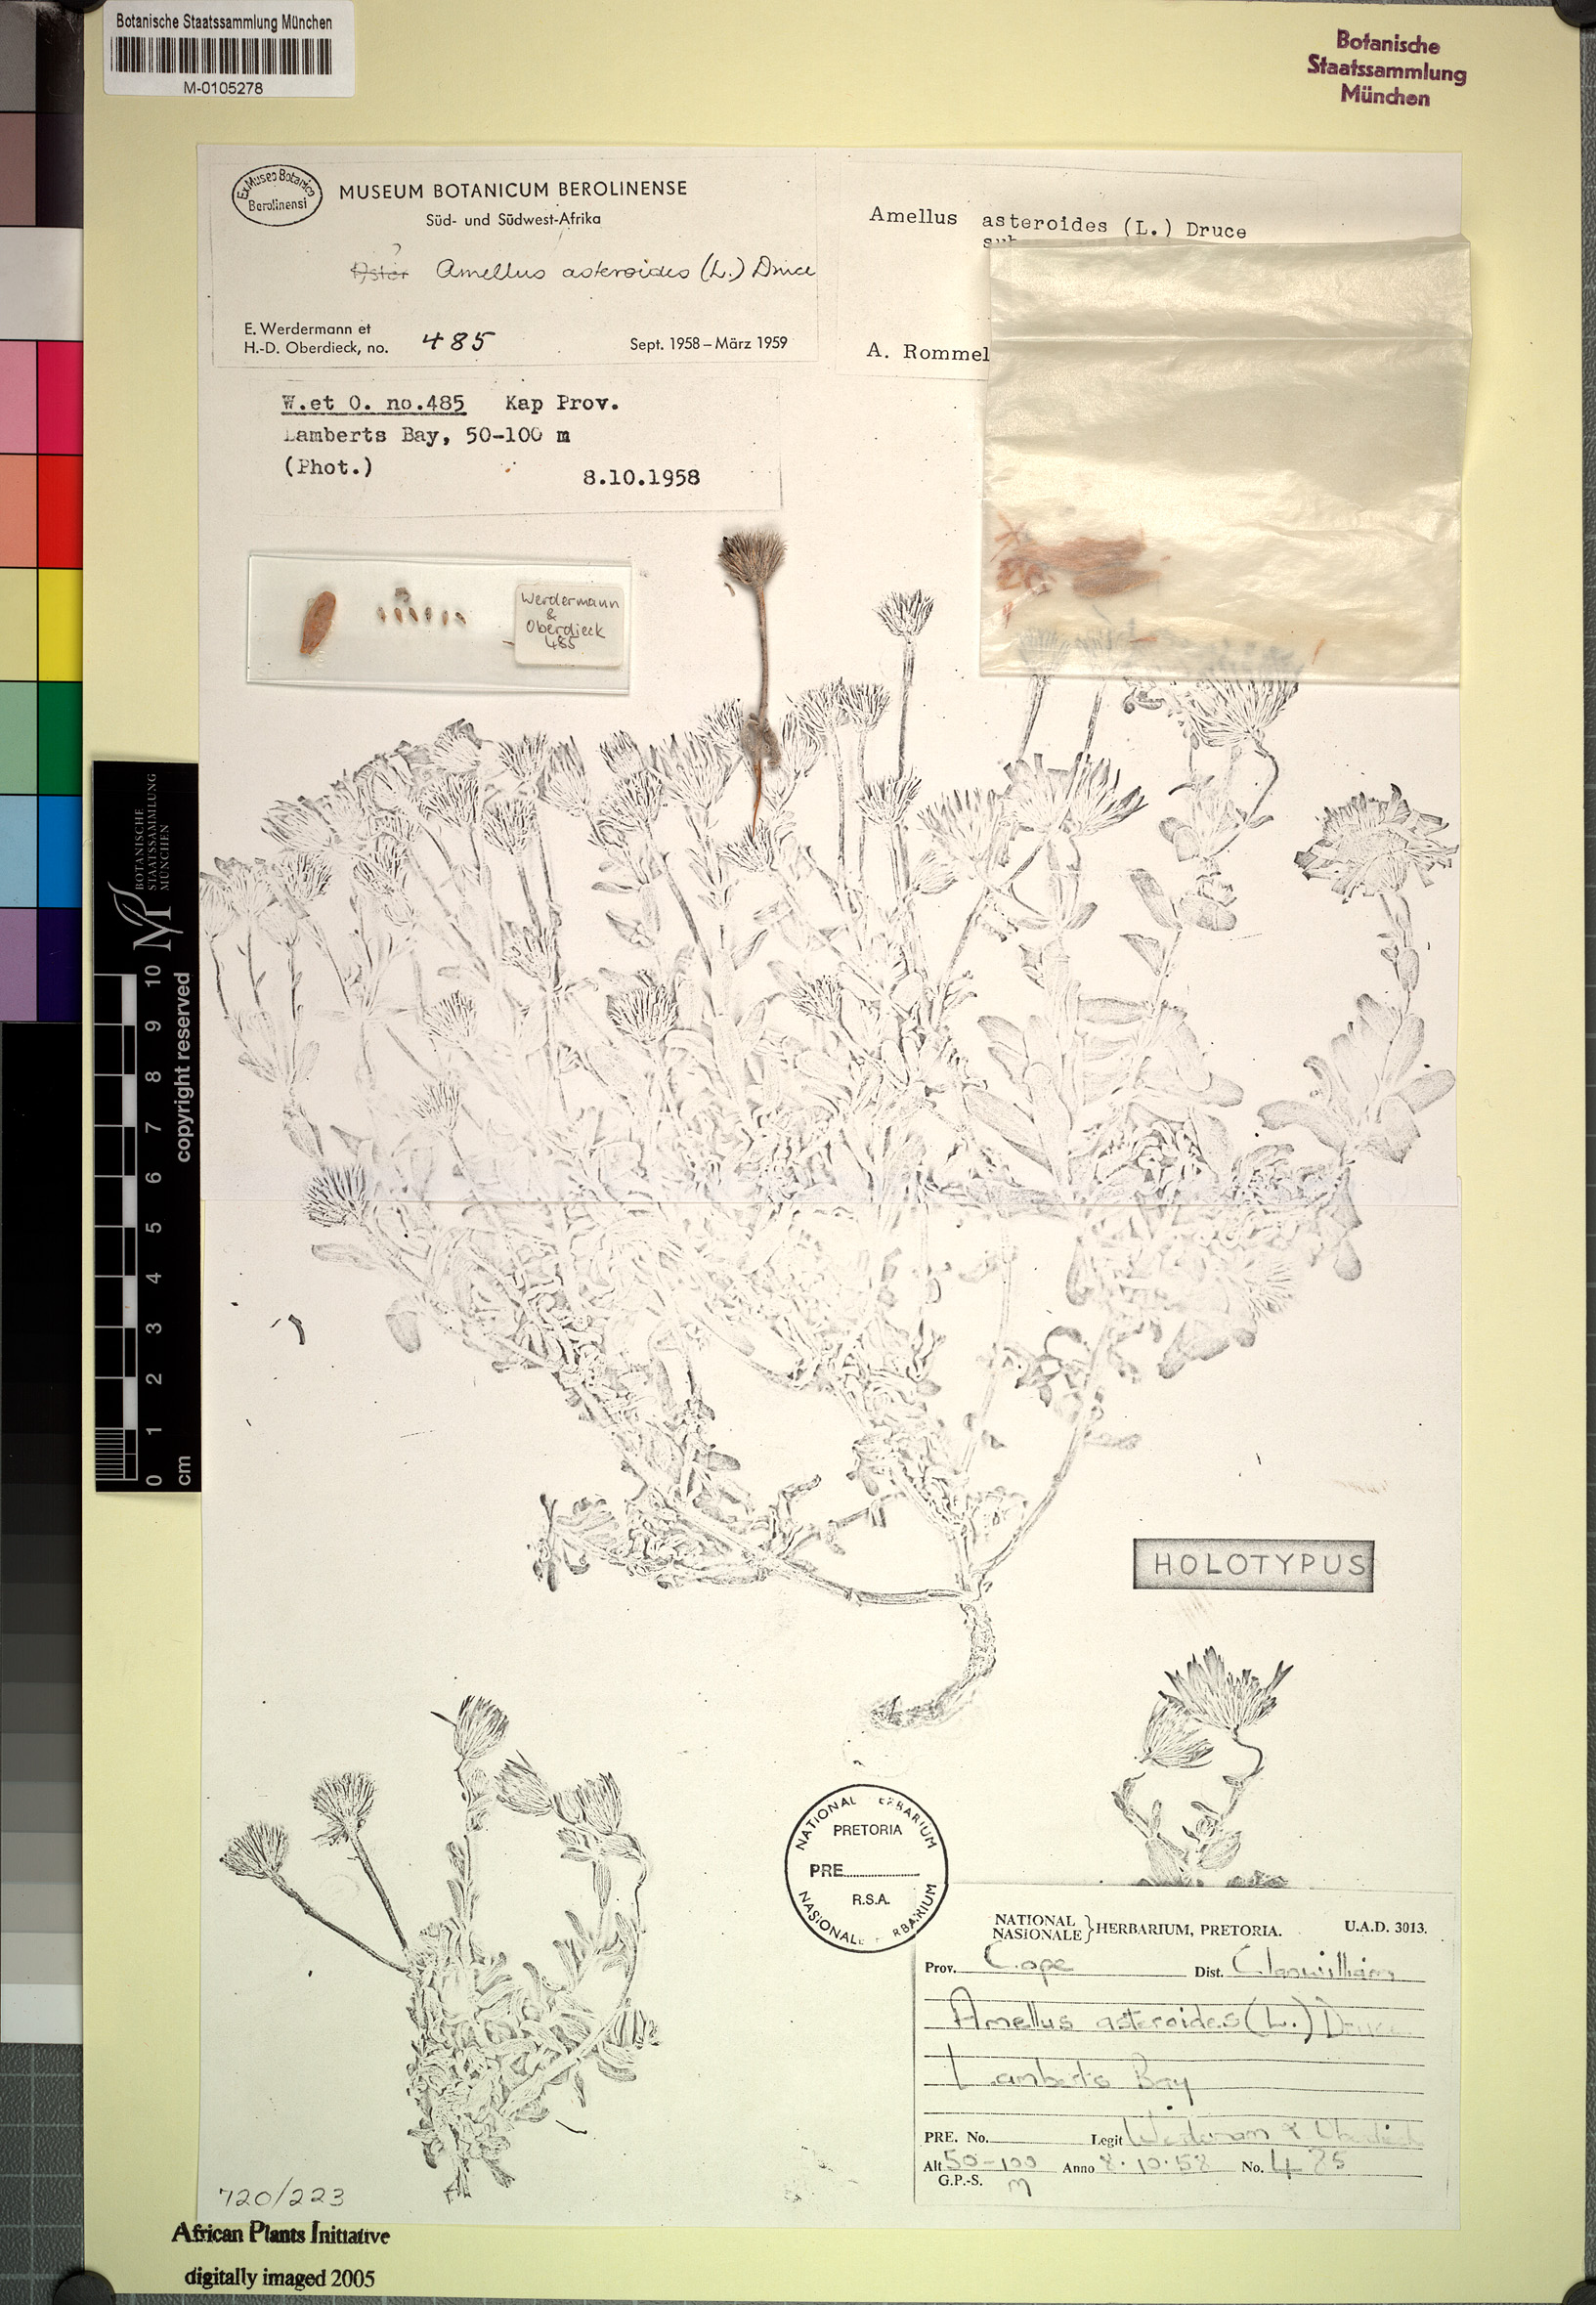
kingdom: Plantae
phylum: Tracheophyta
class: Magnoliopsida
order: Asterales
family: Asteraceae
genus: Amellus
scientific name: Amellus asteroides
